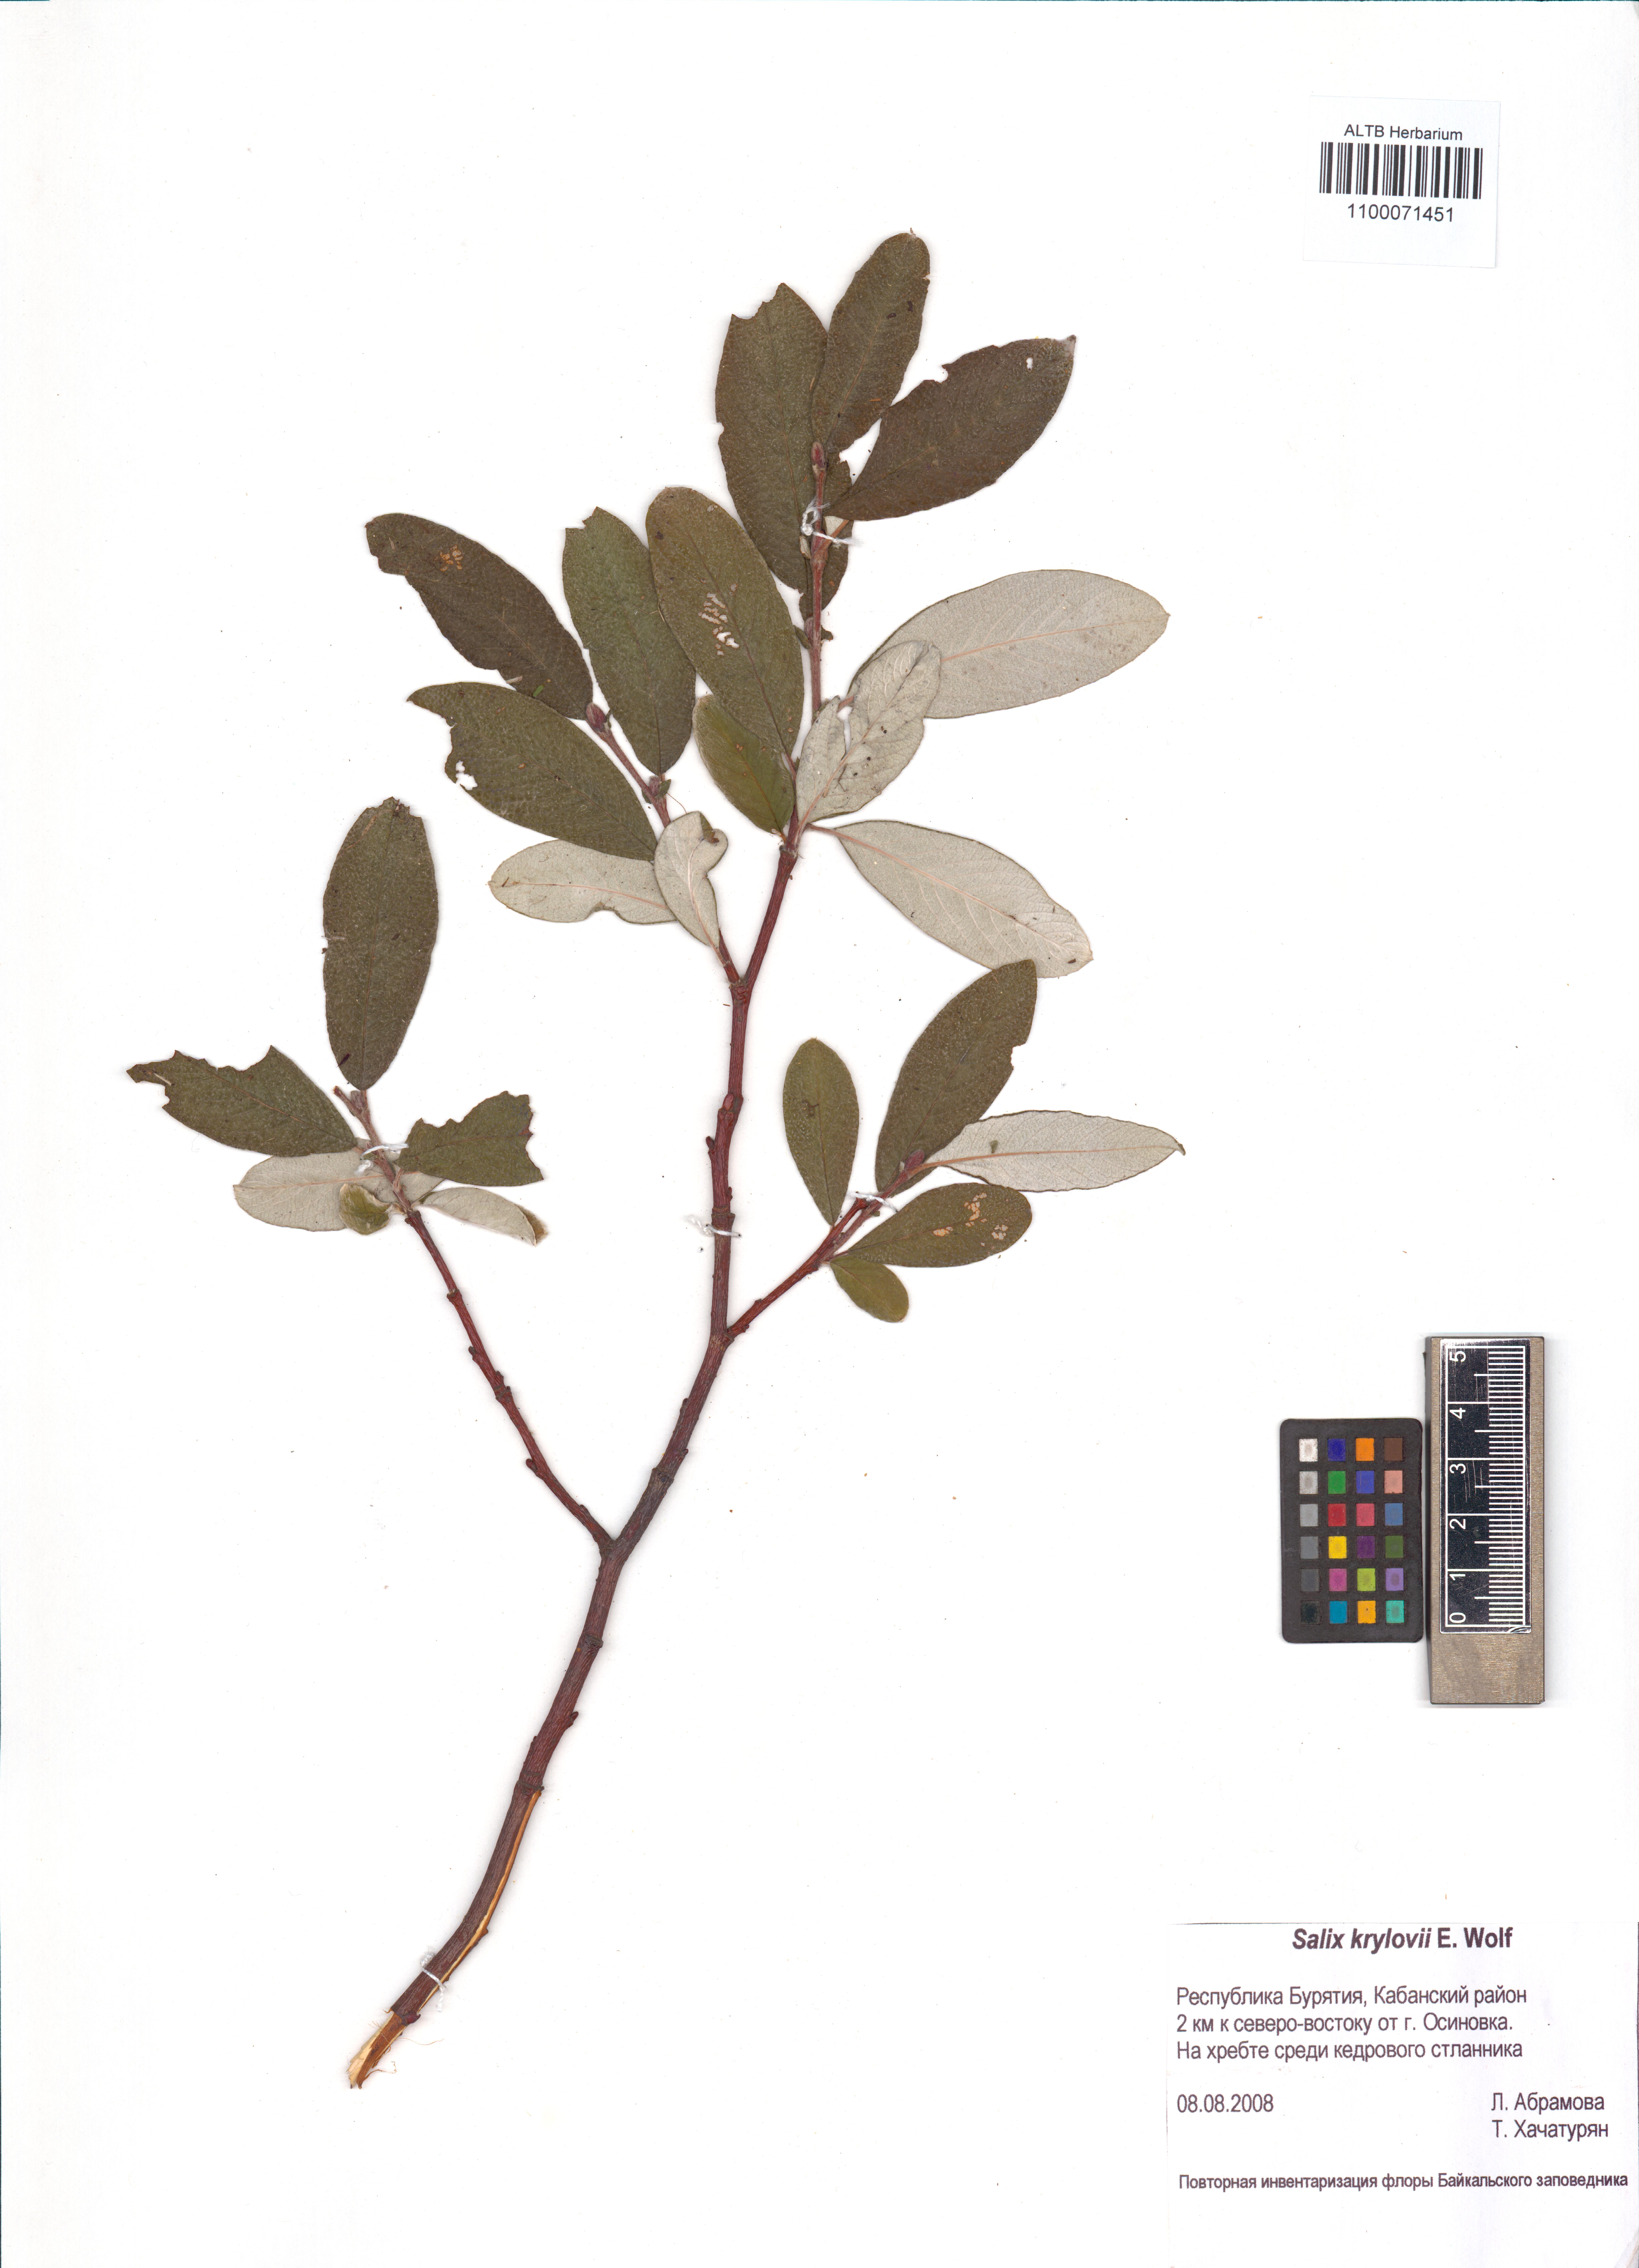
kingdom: Plantae
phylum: Tracheophyta
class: Magnoliopsida
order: Malpighiales
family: Salicaceae
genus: Salix
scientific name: Salix krylovii
